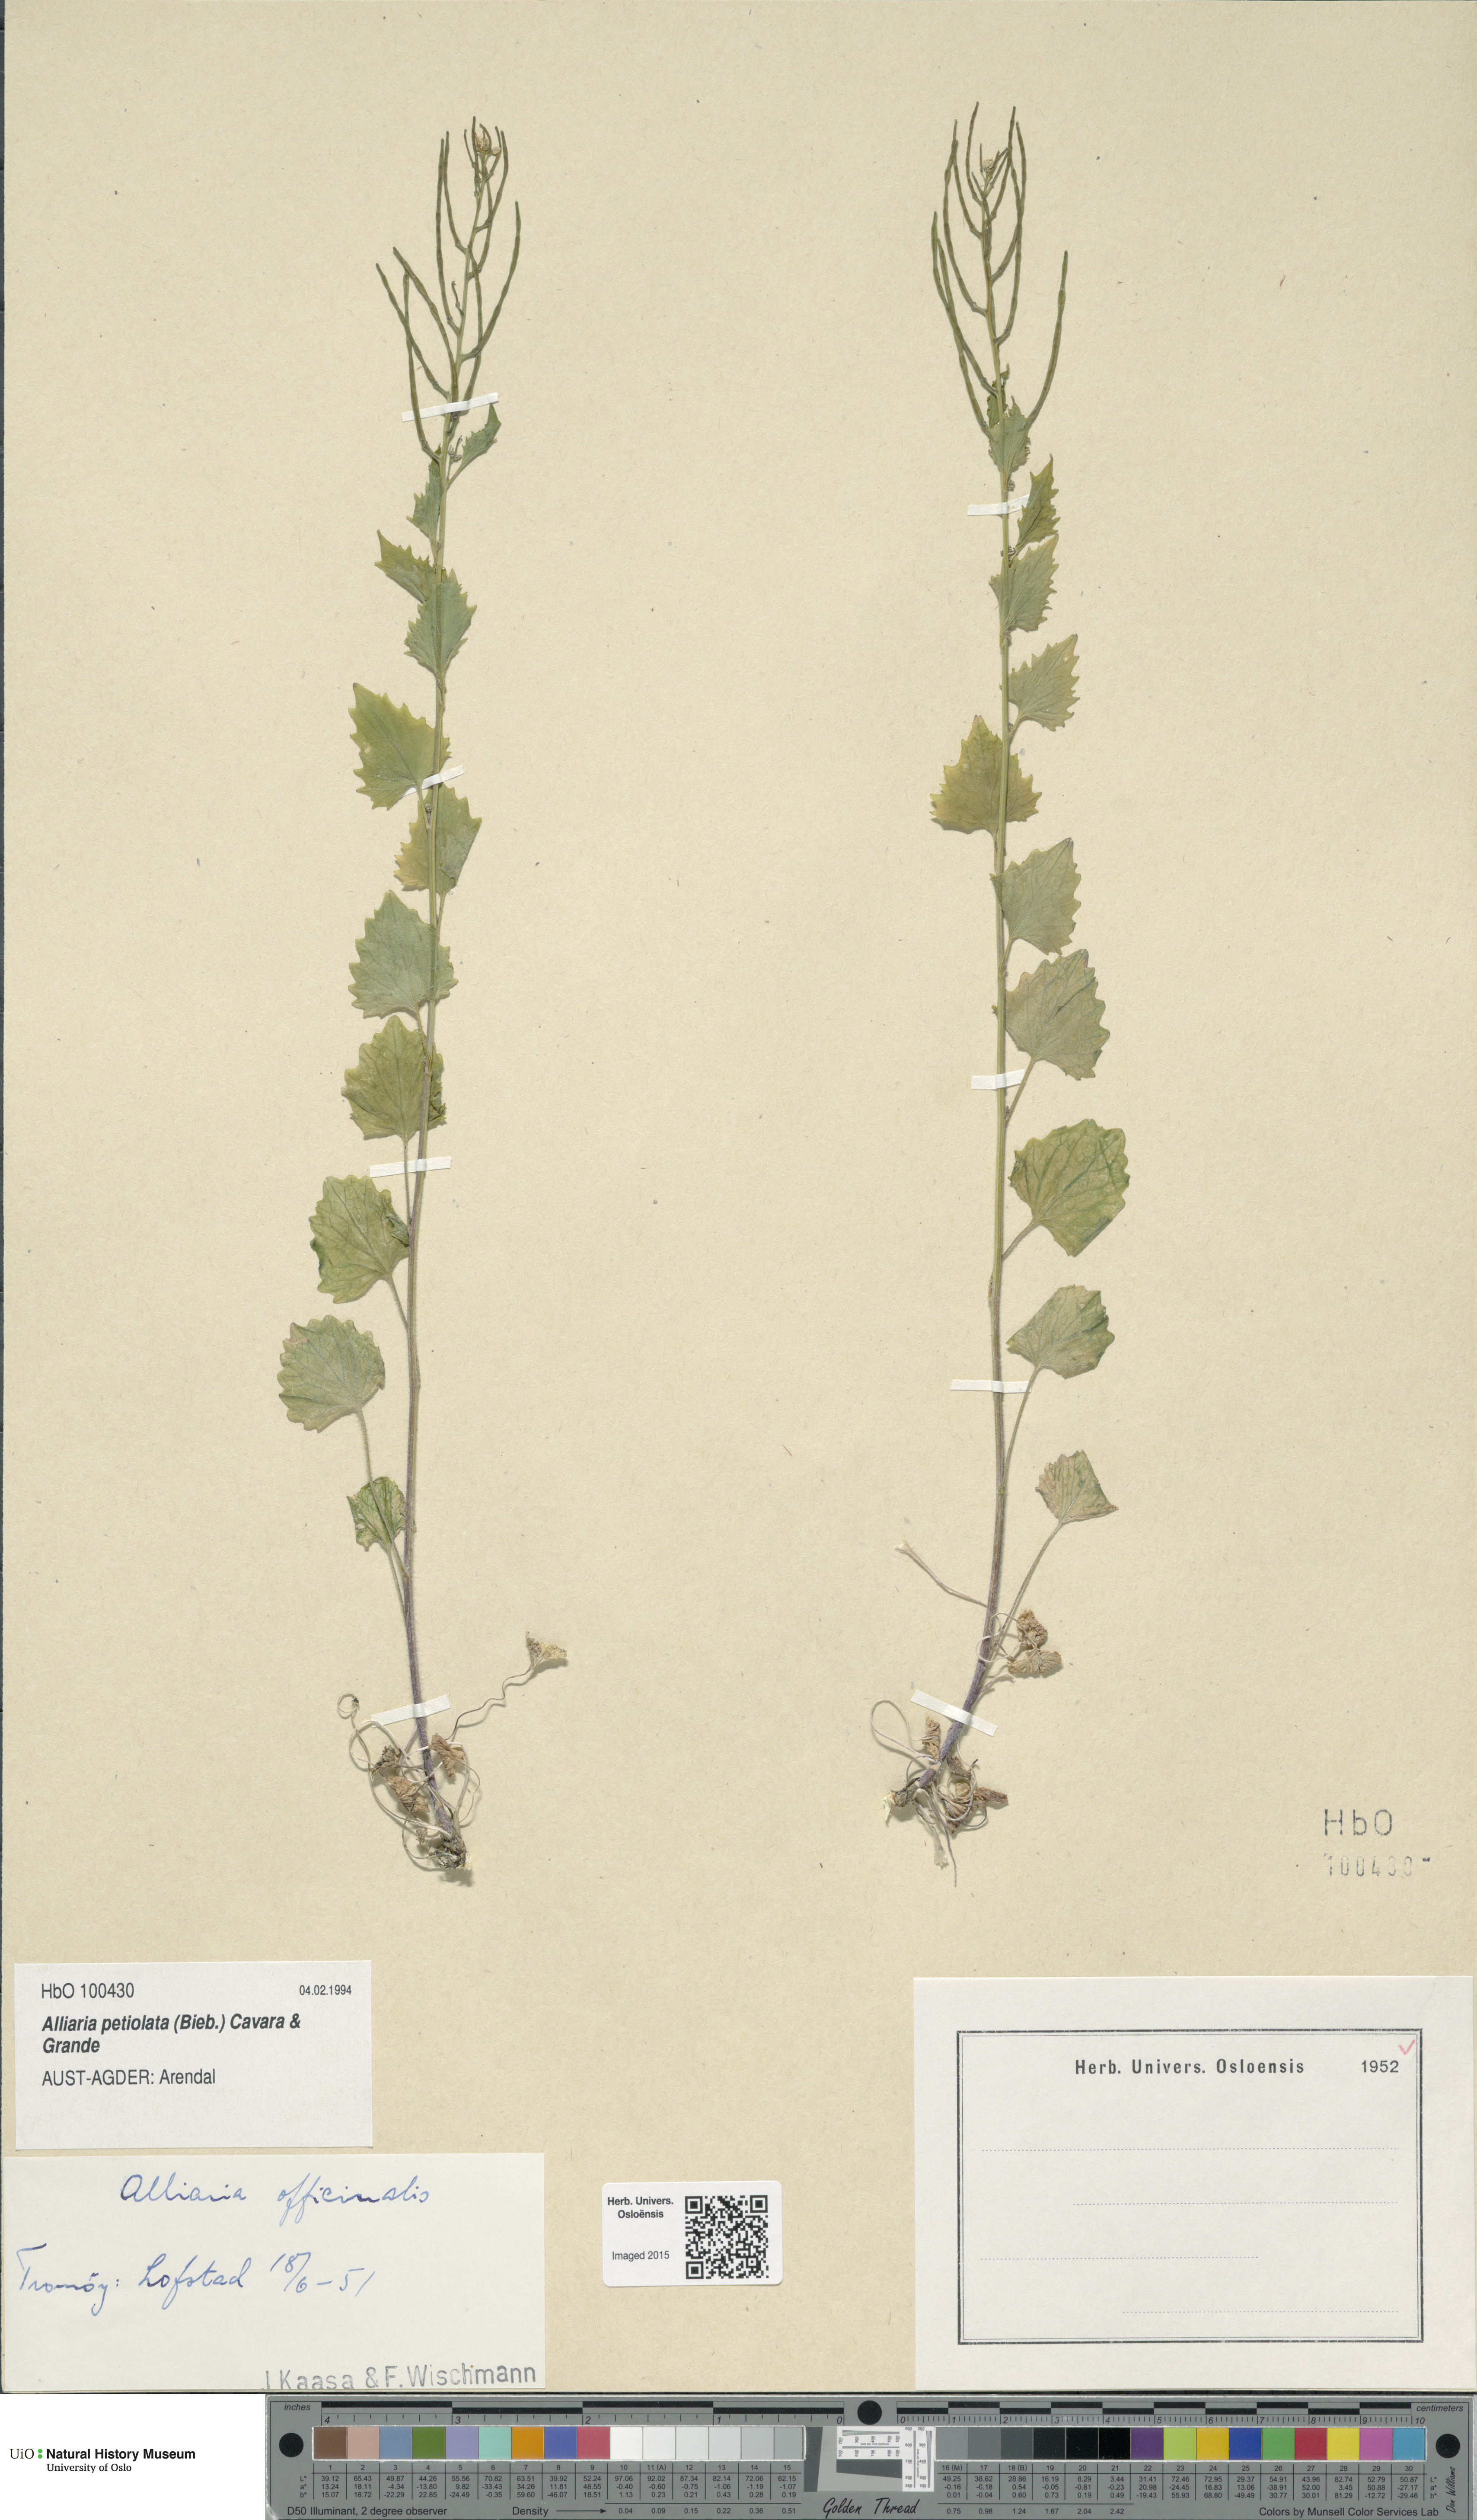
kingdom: Plantae
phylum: Tracheophyta
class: Magnoliopsida
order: Brassicales
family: Brassicaceae
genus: Alliaria
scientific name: Alliaria petiolata
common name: Garlic mustard
